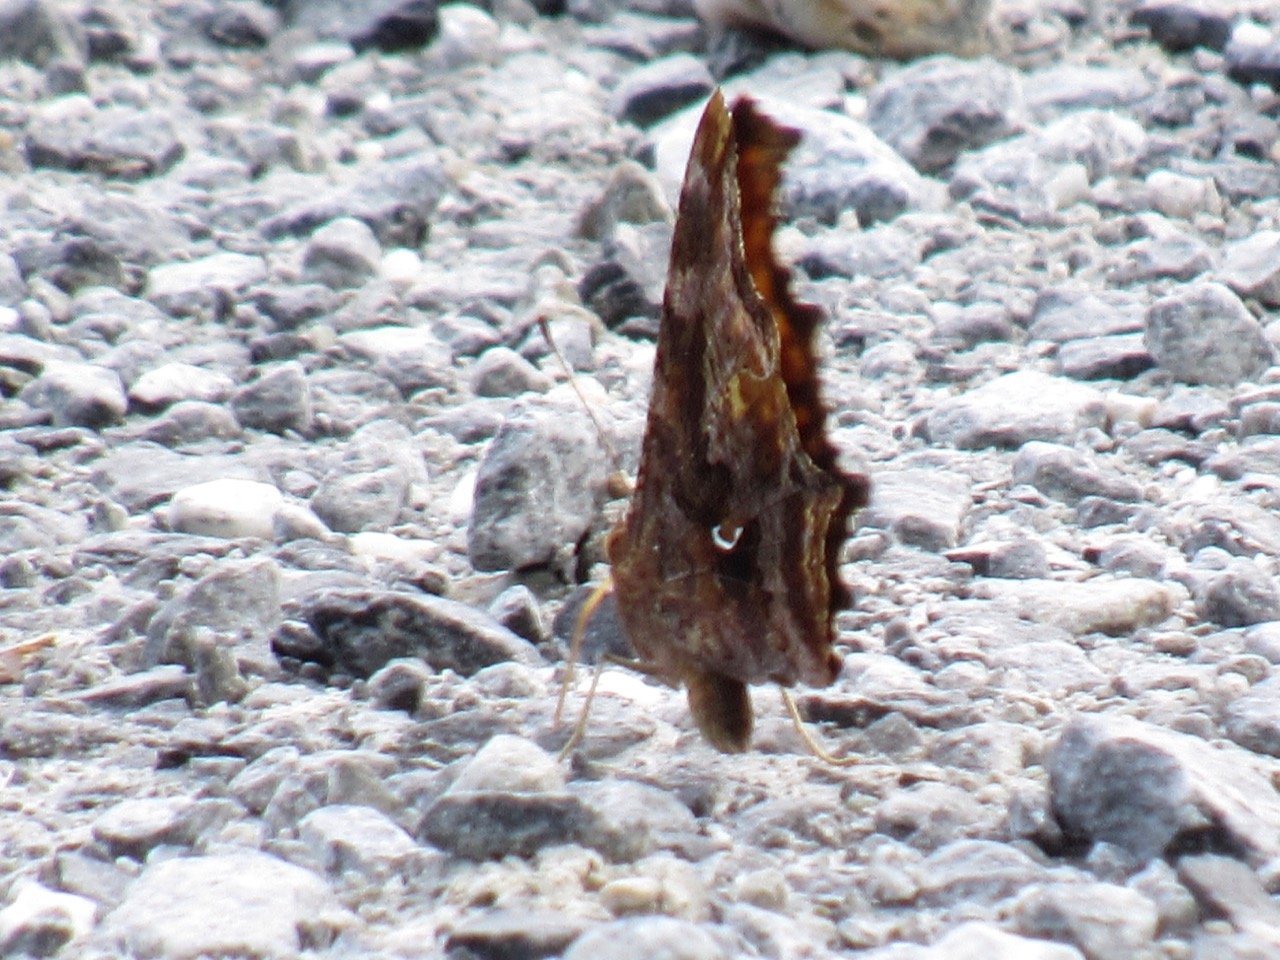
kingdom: Animalia
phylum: Arthropoda
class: Insecta
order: Lepidoptera
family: Nymphalidae
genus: Polygonia
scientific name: Polygonia comma
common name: Eastern Comma
